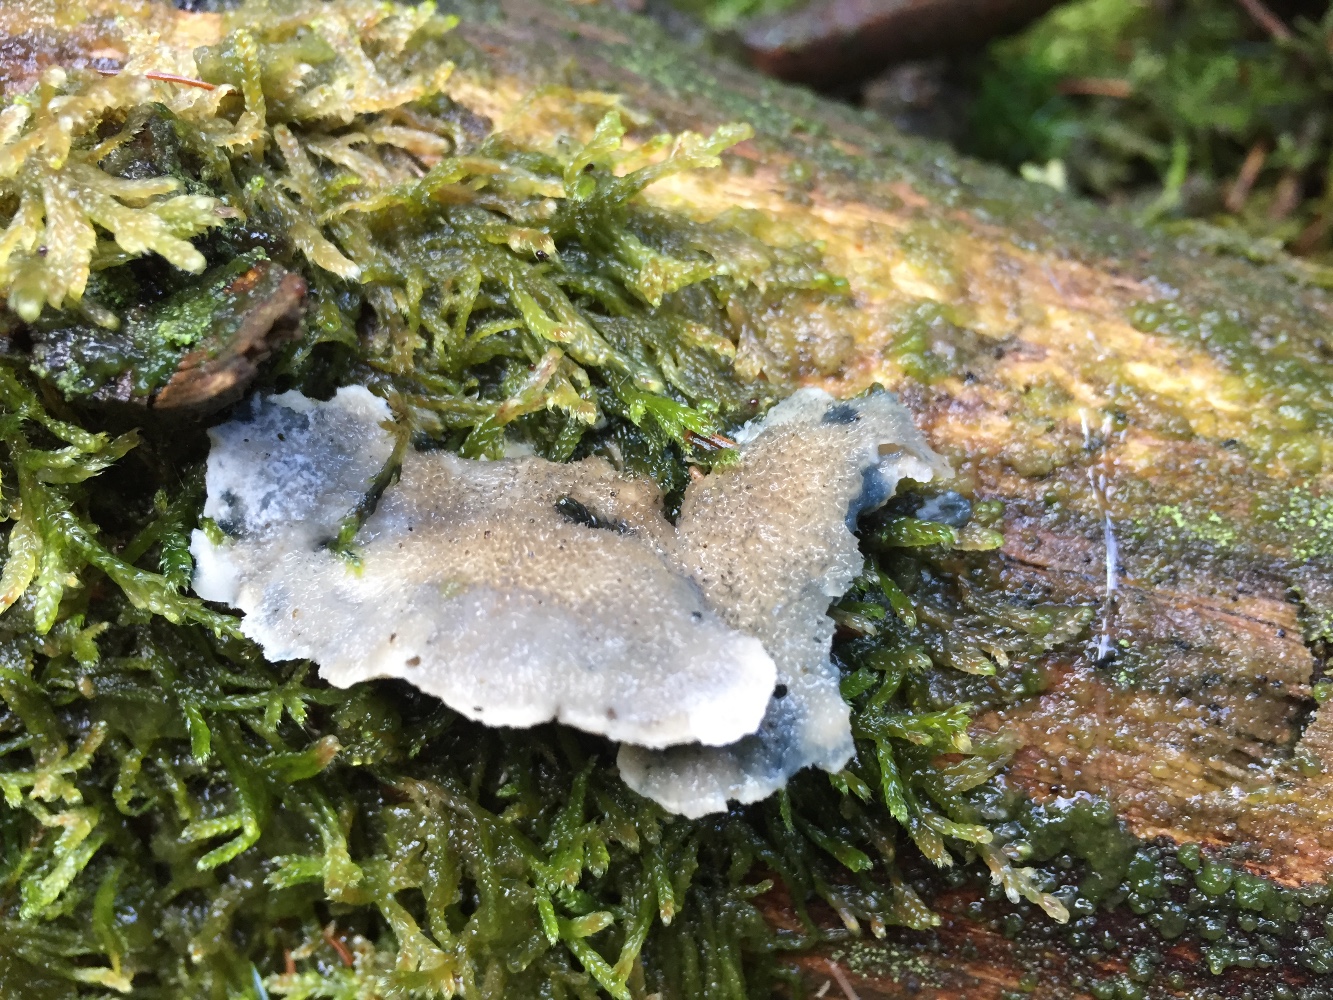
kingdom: Fungi
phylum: Basidiomycota
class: Agaricomycetes
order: Polyporales
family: Polyporaceae
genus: Cyanosporus
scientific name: Cyanosporus caesius
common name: blålig kødporesvamp
